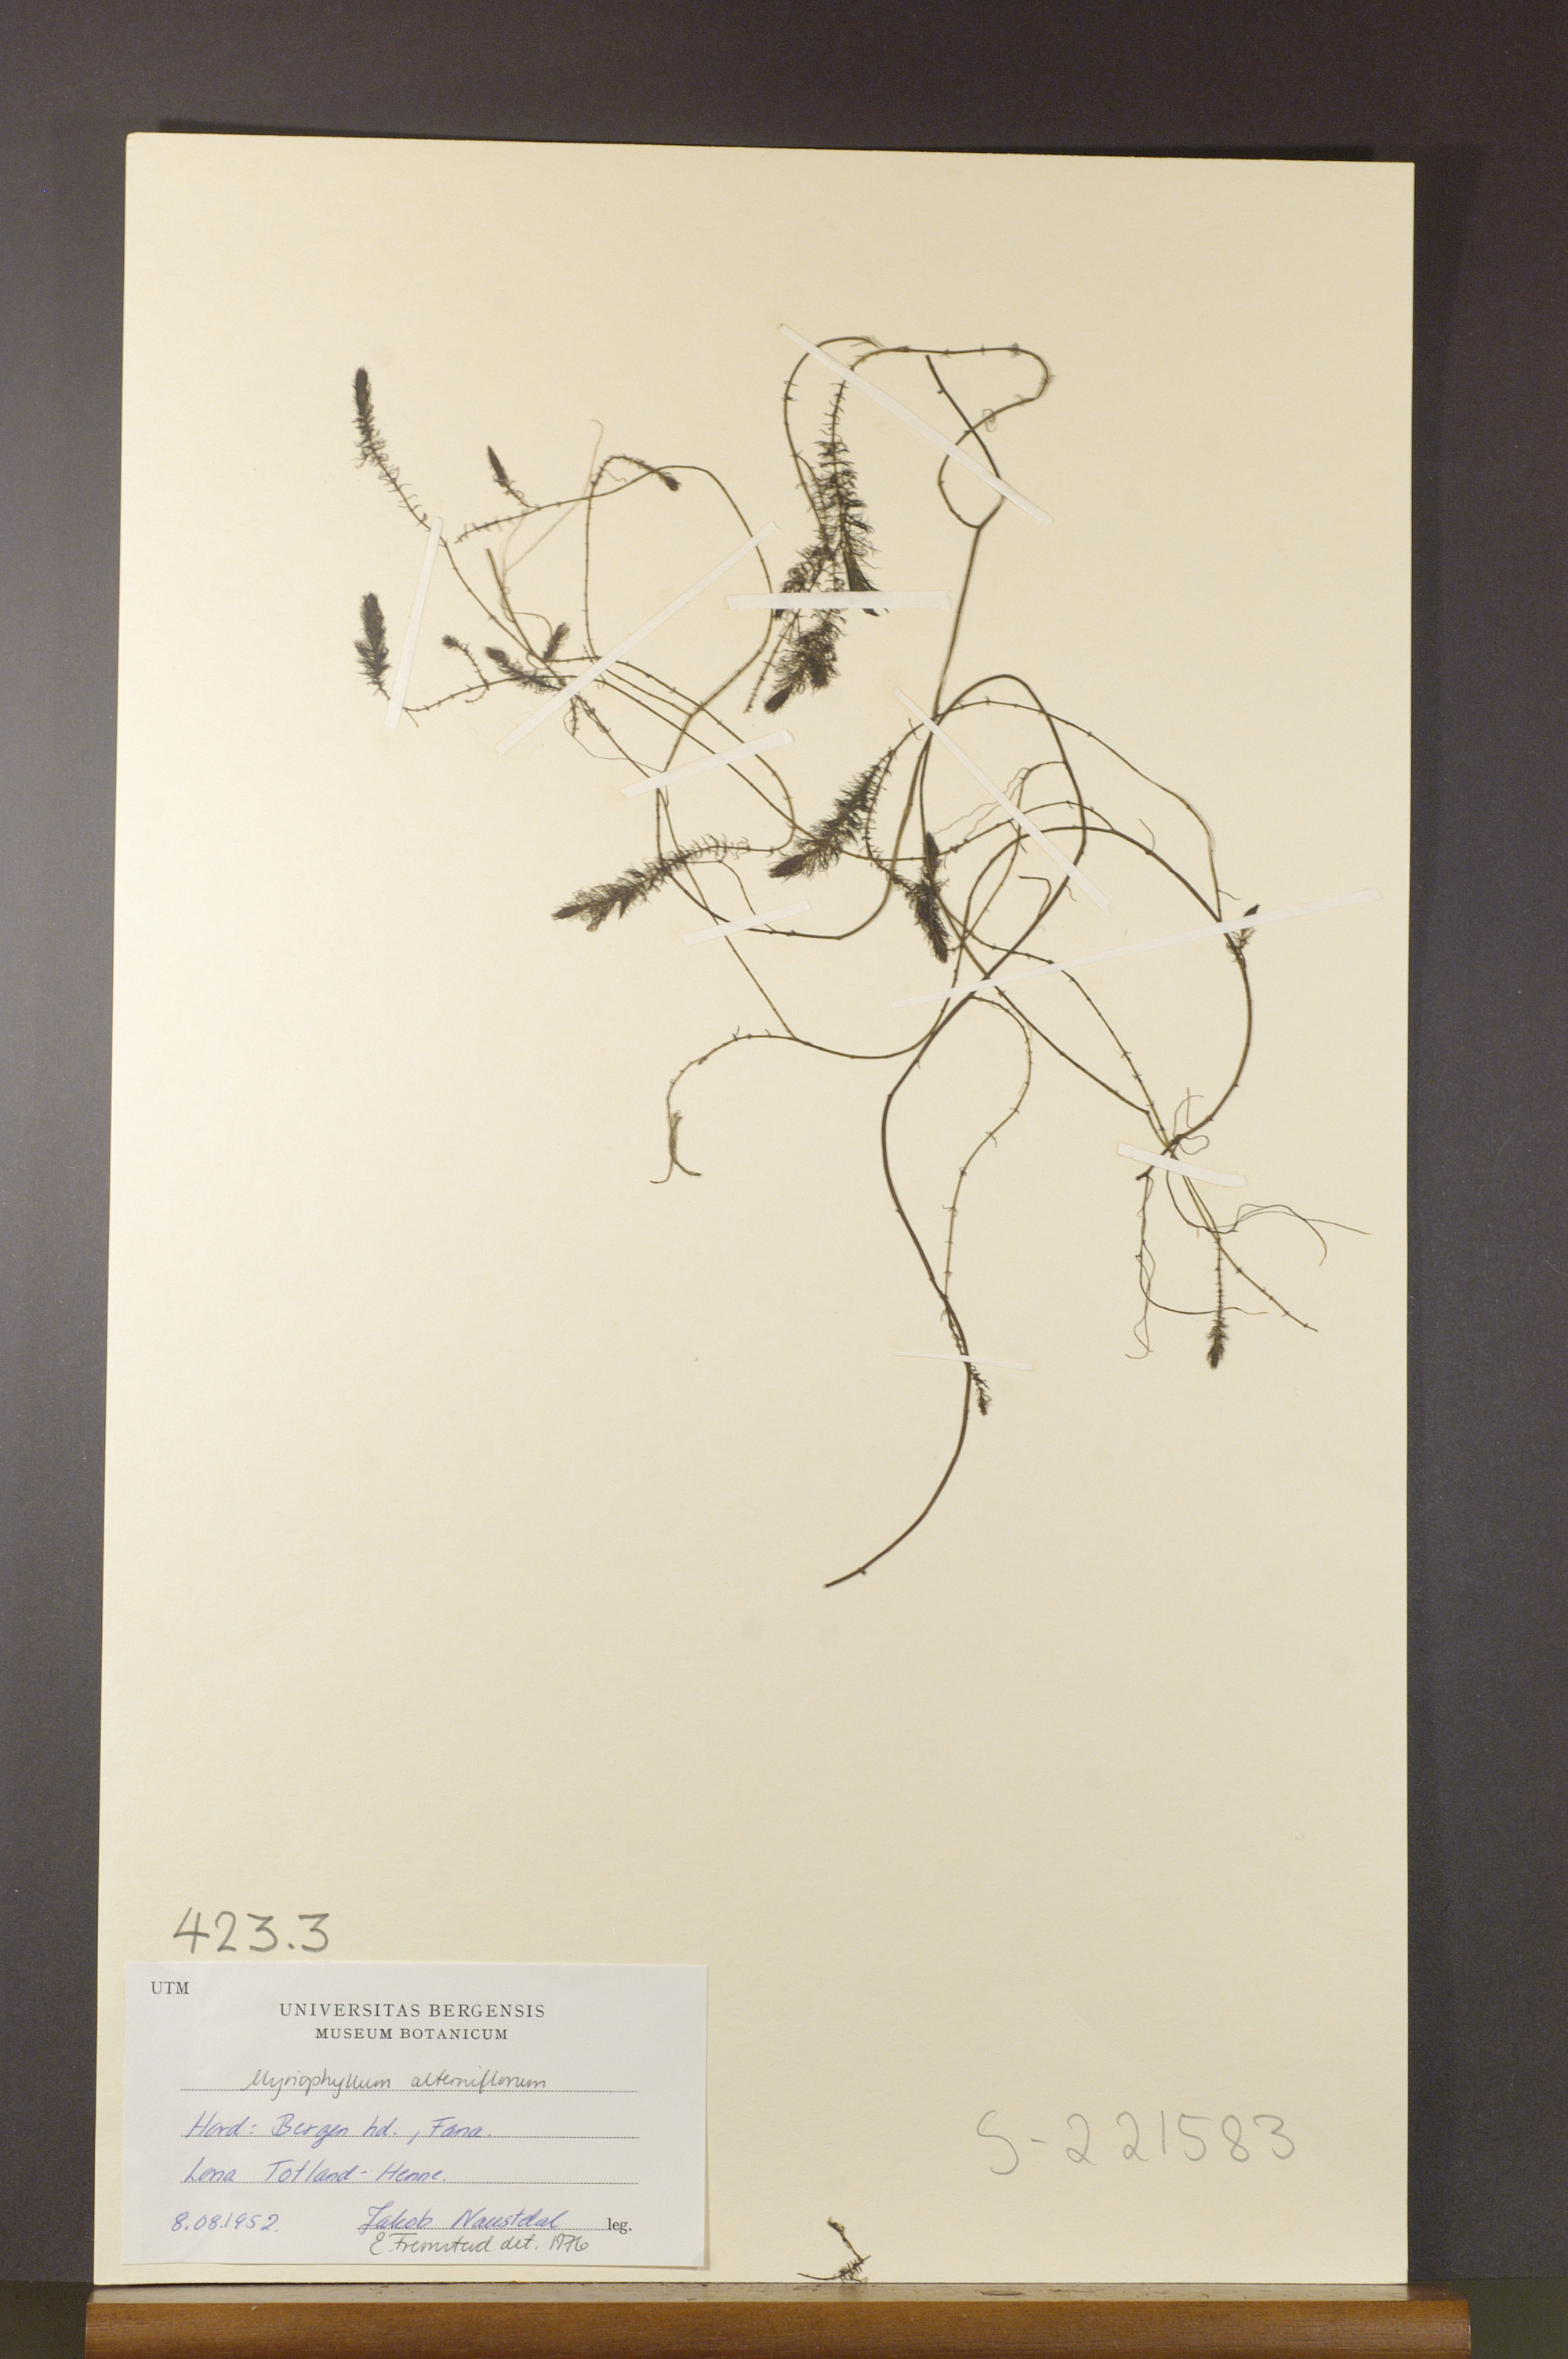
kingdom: Plantae
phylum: Tracheophyta
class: Magnoliopsida
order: Saxifragales
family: Haloragaceae
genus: Myriophyllum
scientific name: Myriophyllum alterniflorum
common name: Alternate water-milfoil
